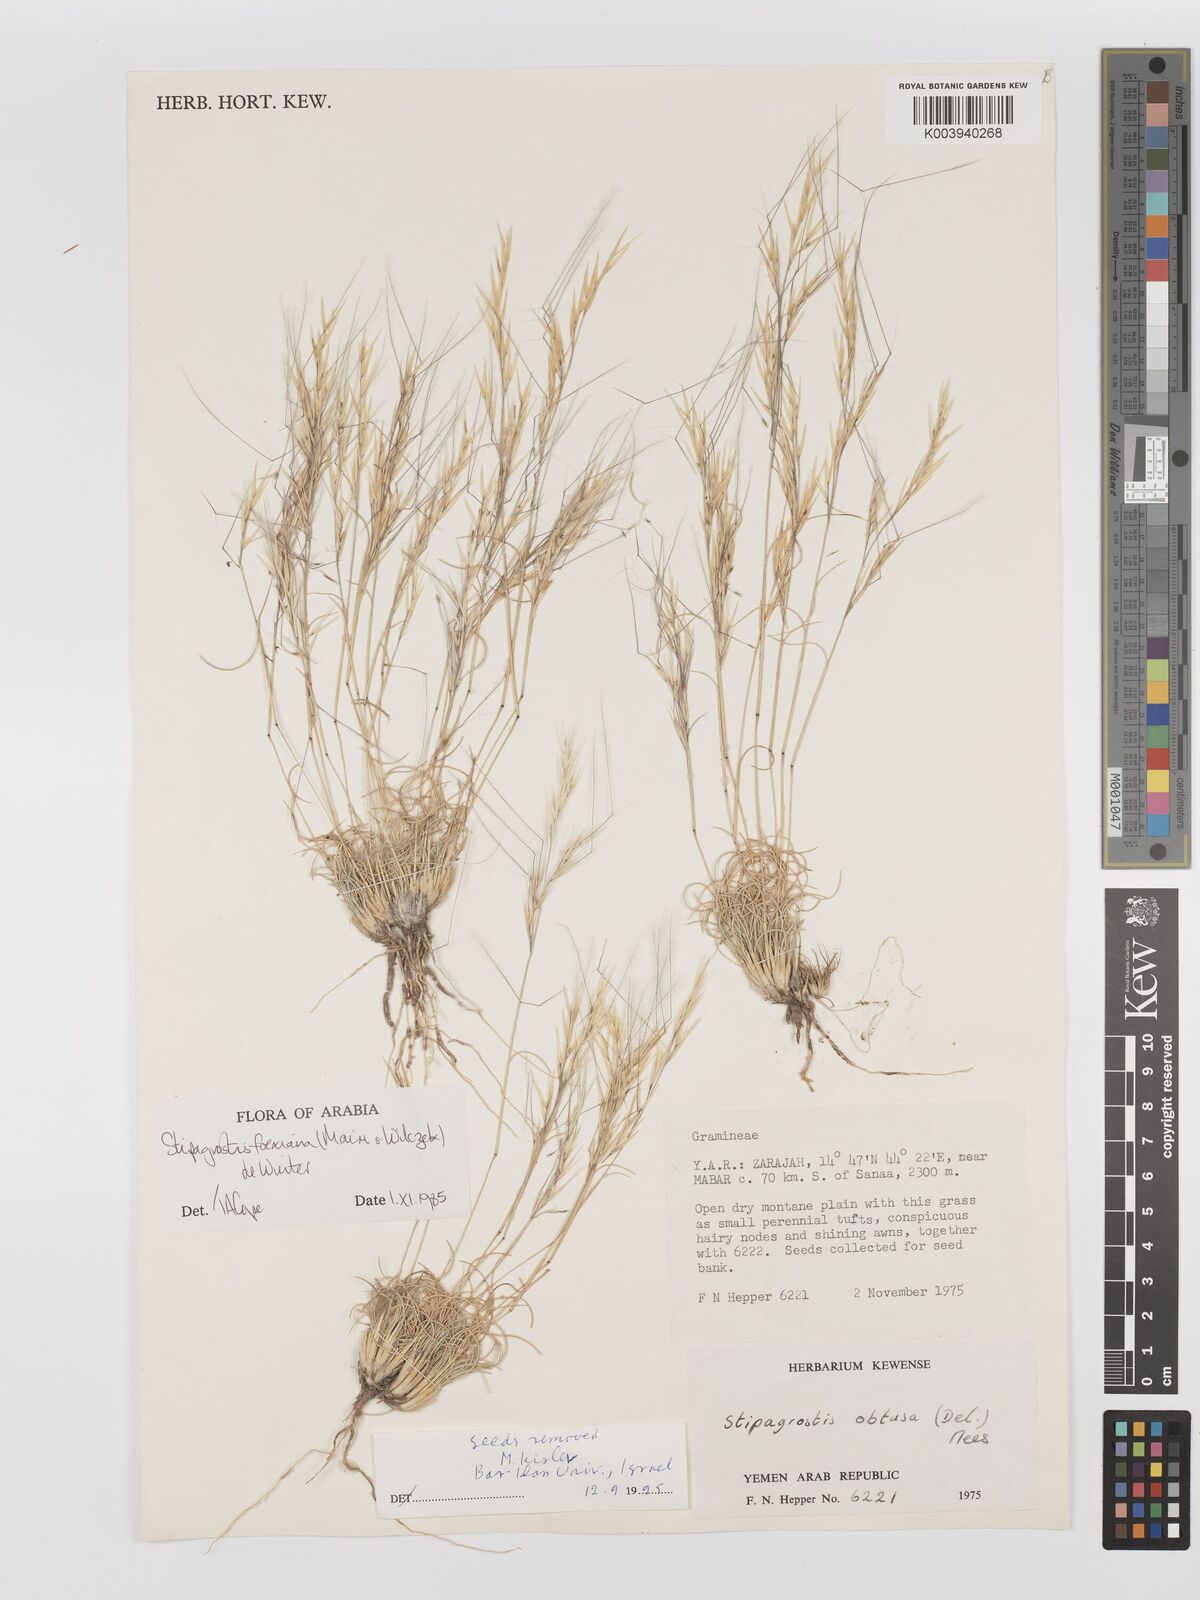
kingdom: Plantae
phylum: Tracheophyta
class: Liliopsida
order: Poales
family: Poaceae
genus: Stipagrostis
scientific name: Stipagrostis foexiana
